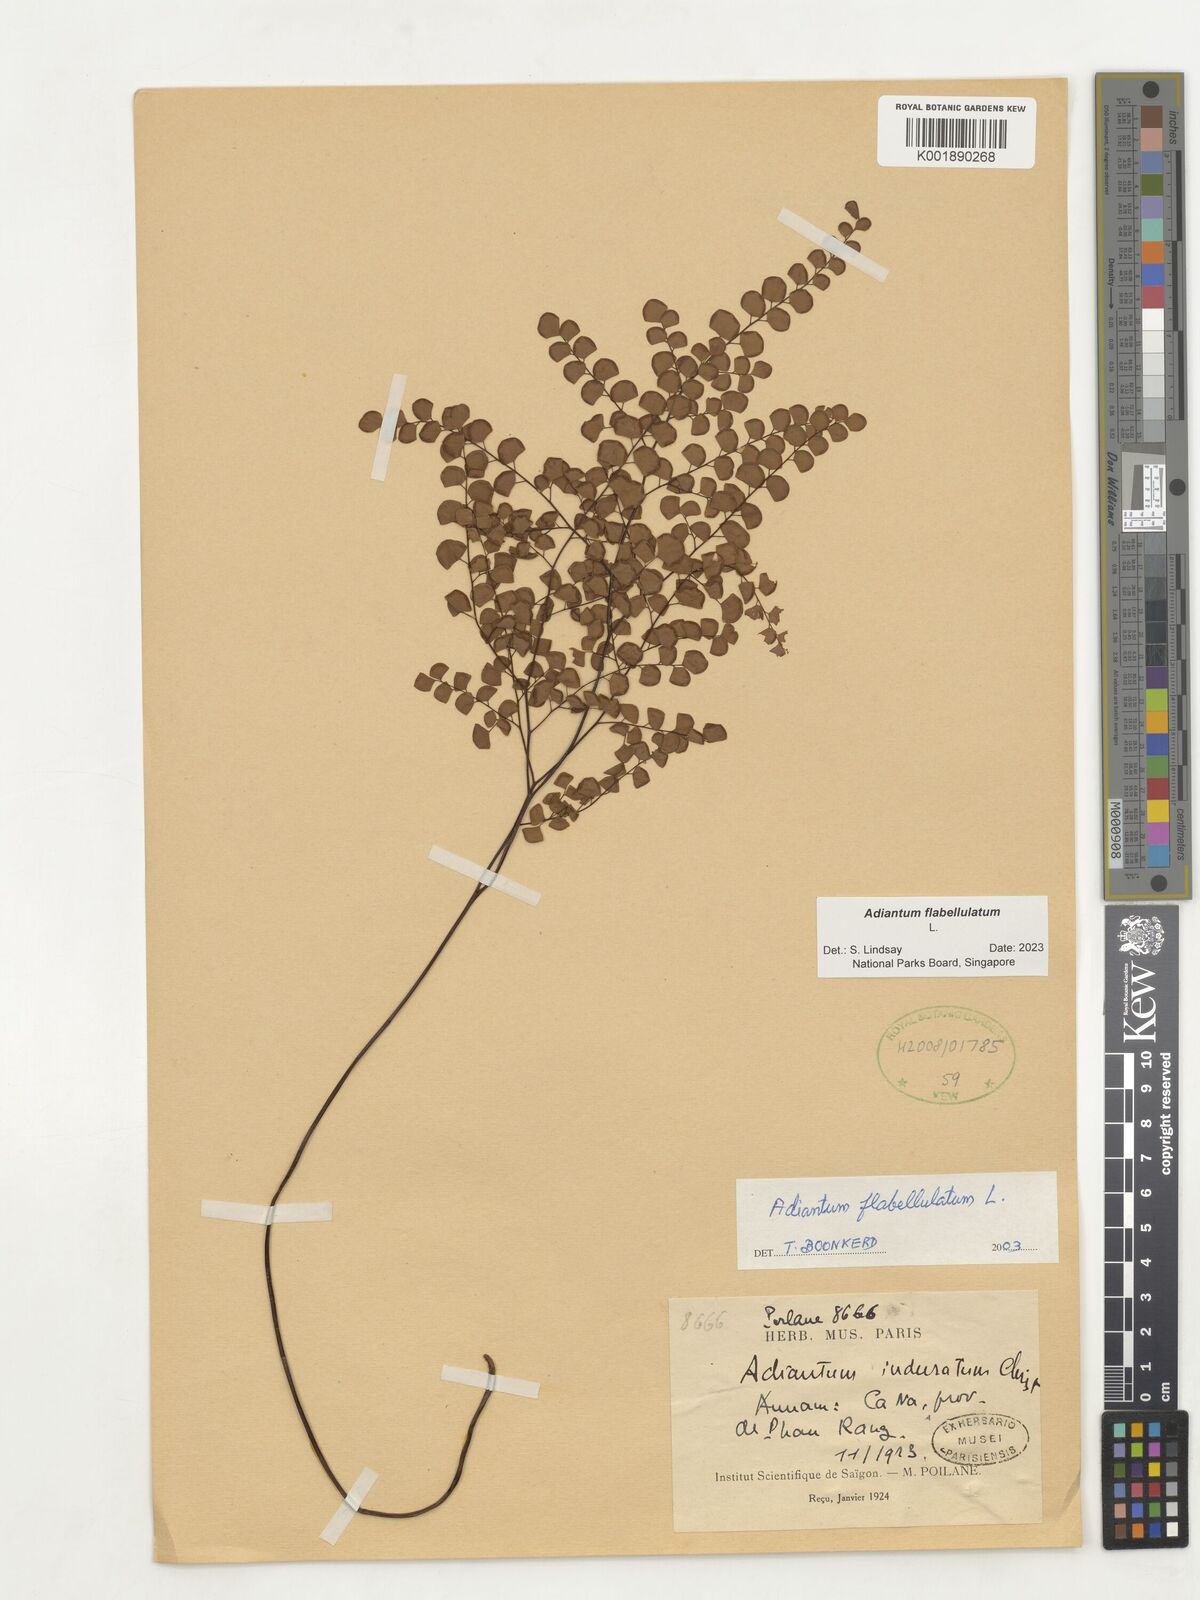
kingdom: Plantae
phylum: Tracheophyta
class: Polypodiopsida
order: Polypodiales
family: Pteridaceae
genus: Adiantum
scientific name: Adiantum flabellulatum
